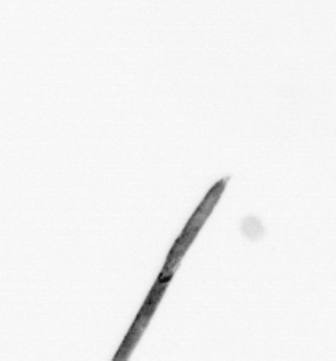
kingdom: Bacteria
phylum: Cyanobacteria
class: Cyanobacteriia
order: Cyanobacteriales
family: Microcoleaceae
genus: Trichodesmium
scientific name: Trichodesmium
